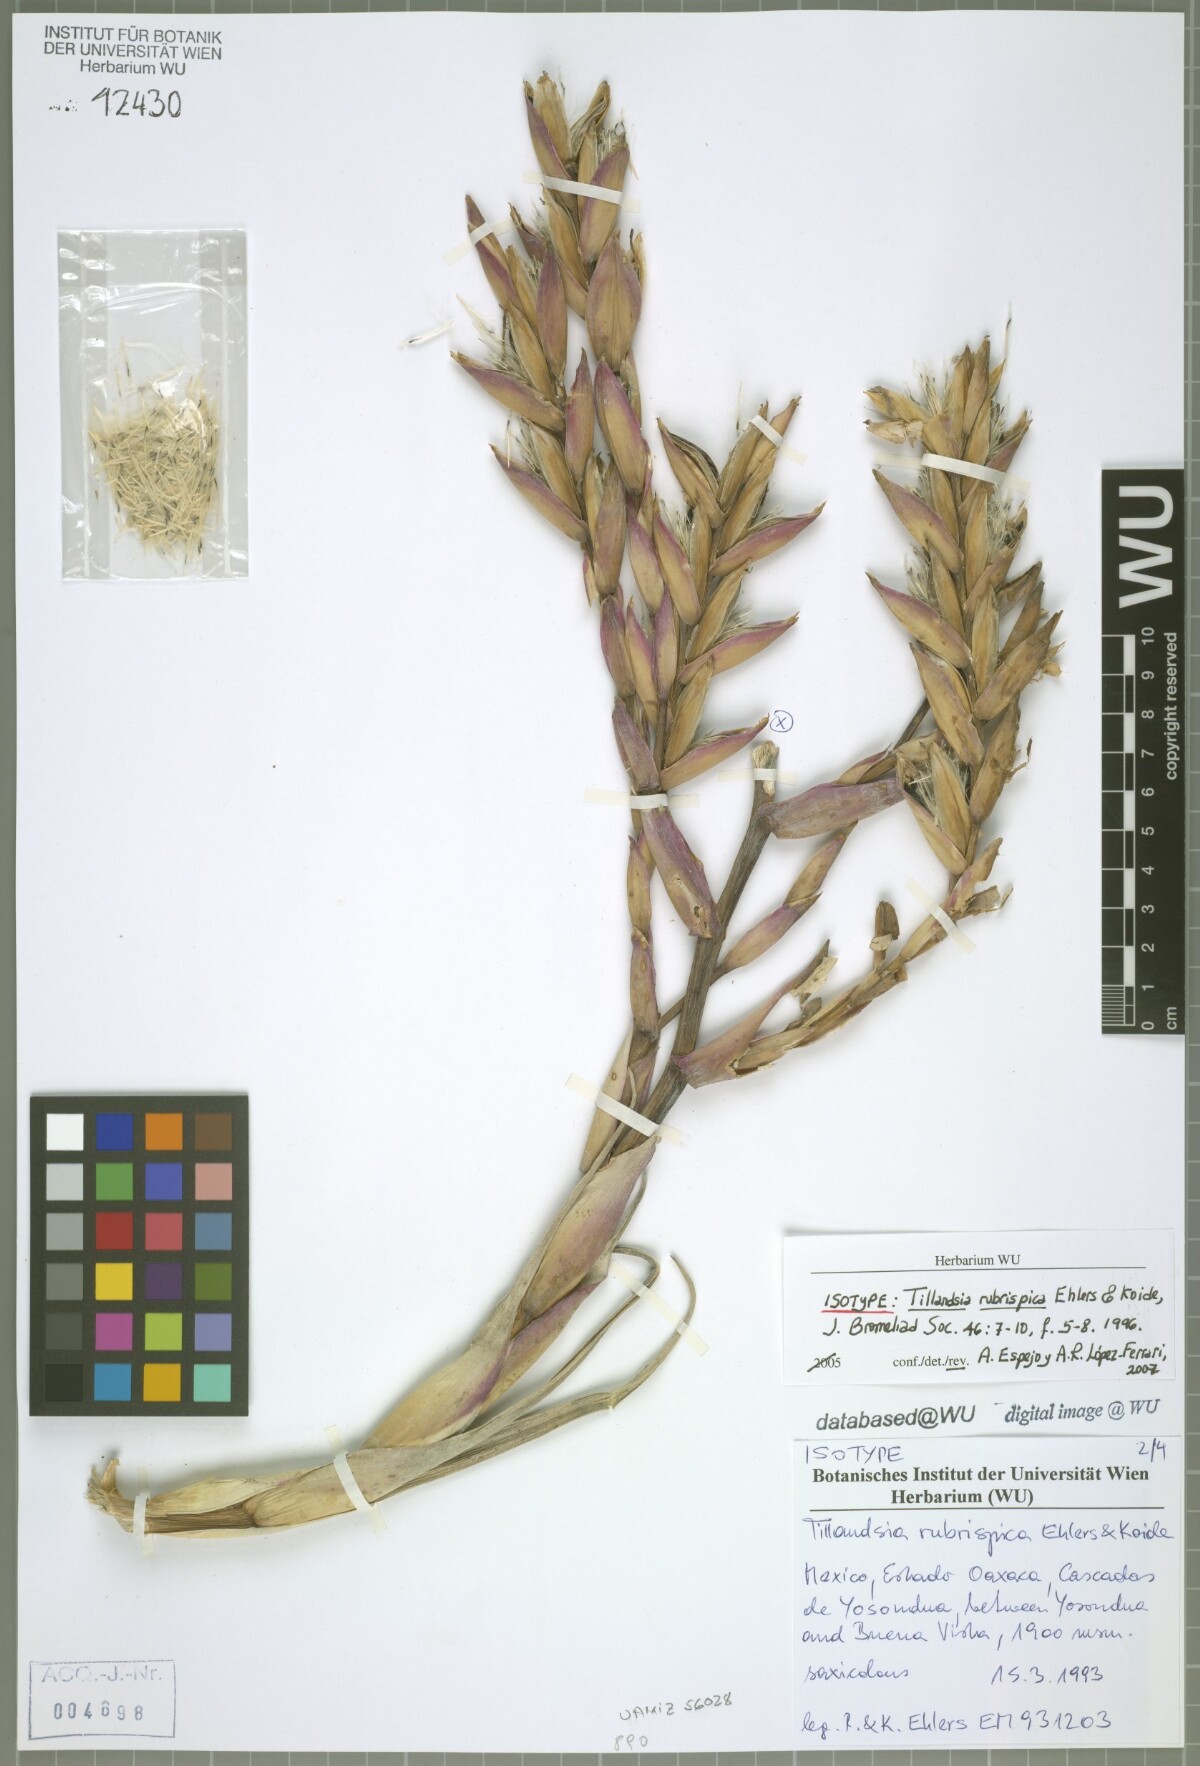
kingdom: Plantae
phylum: Tracheophyta
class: Liliopsida
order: Poales
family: Bromeliaceae
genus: Tillandsia
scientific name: Tillandsia rubrispica
